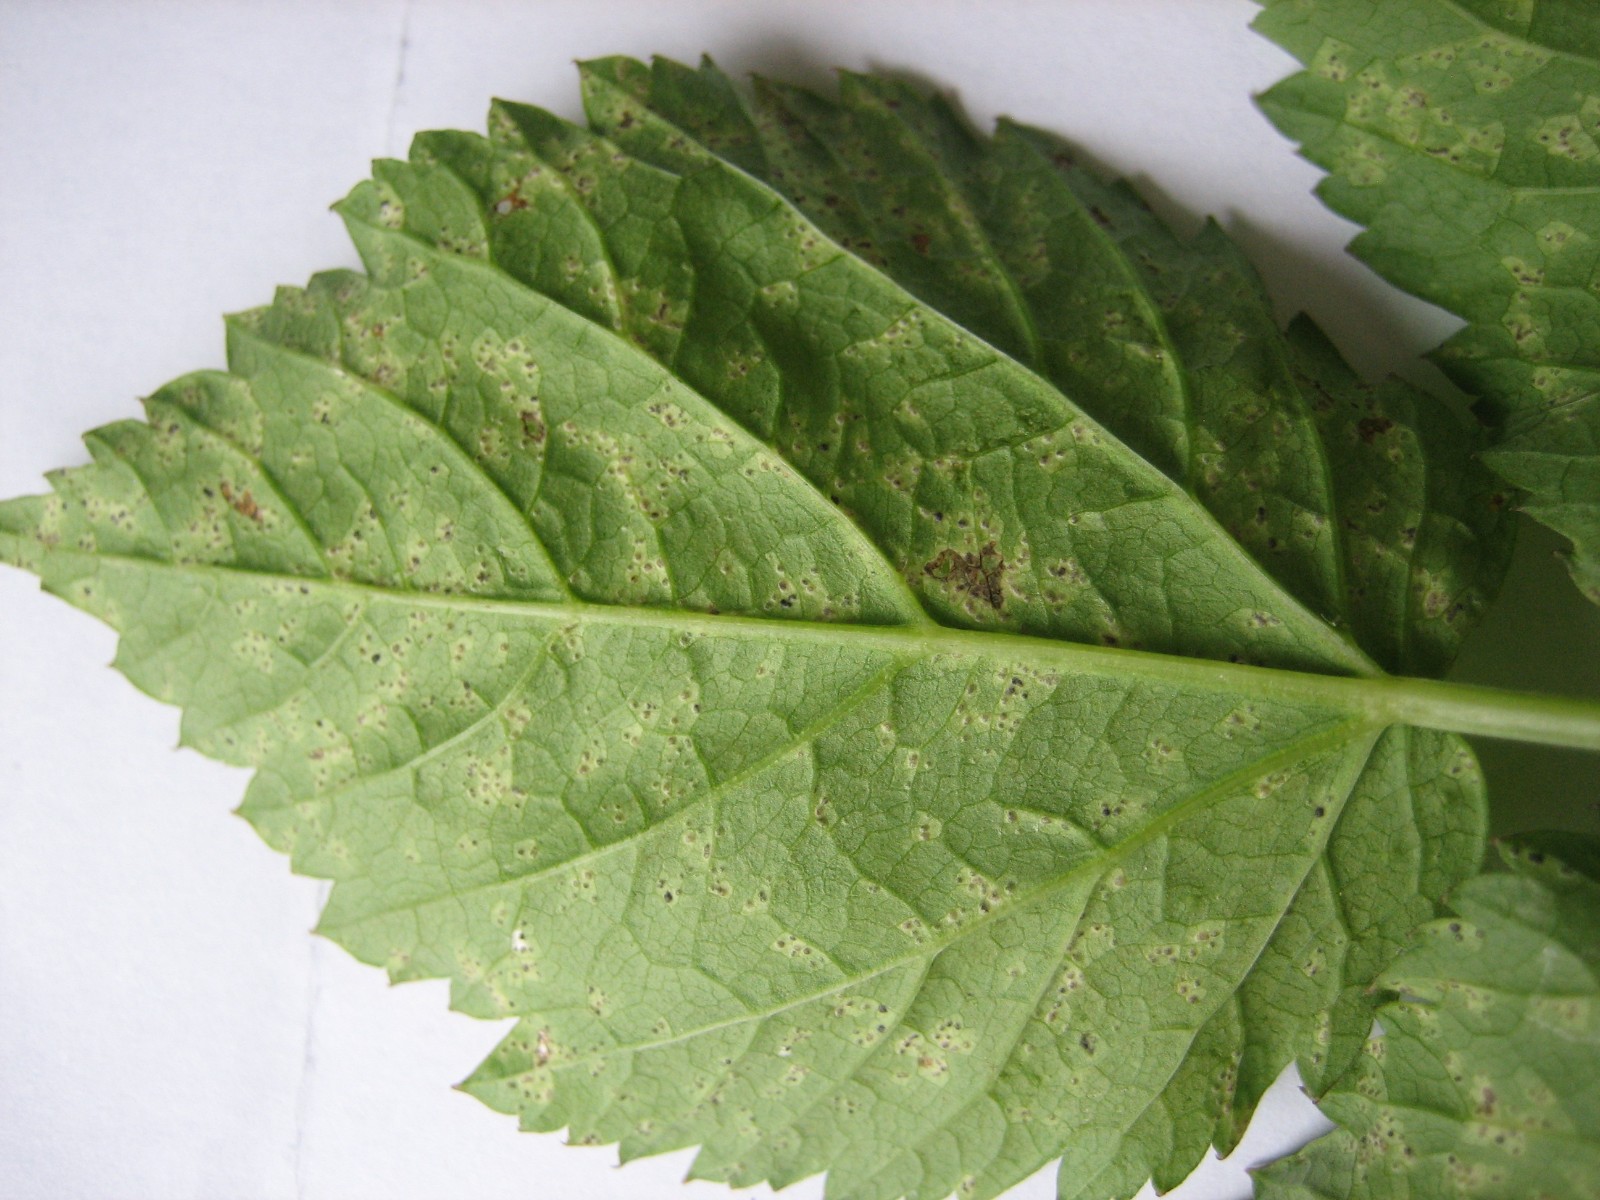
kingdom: Fungi
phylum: Ascomycota
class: Dothideomycetes
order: Mycosphaerellales
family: Mycosphaerellaceae
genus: Mycosphaerella
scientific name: Mycosphaerella podagrariae
